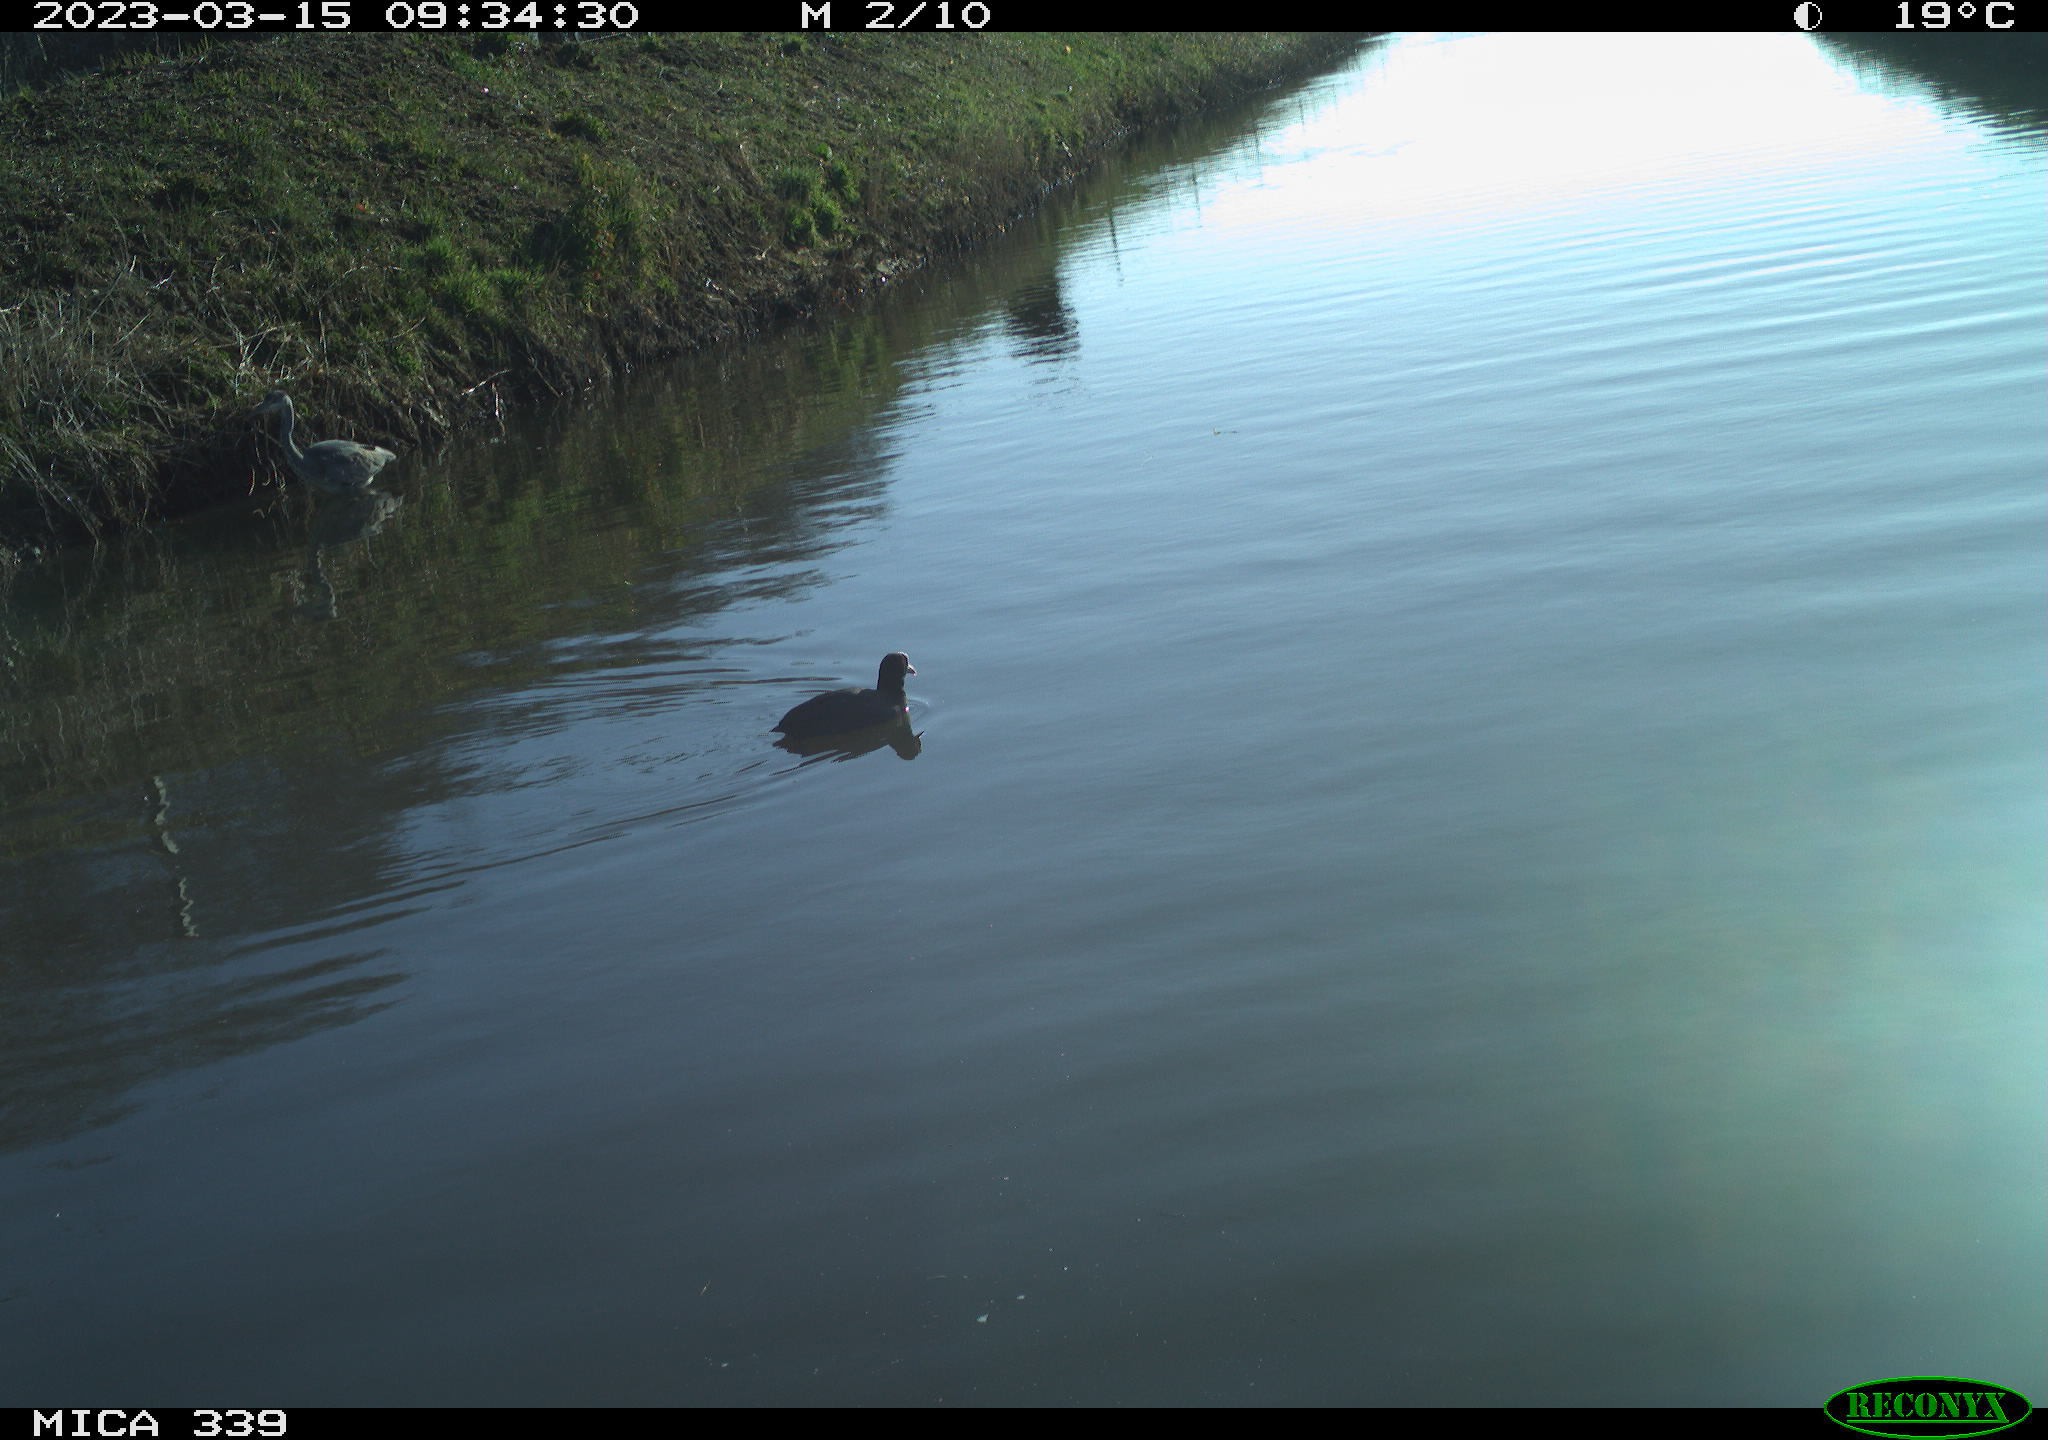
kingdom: Animalia
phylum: Chordata
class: Aves
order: Suliformes
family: Phalacrocoracidae
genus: Phalacrocorax
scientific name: Phalacrocorax carbo
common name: Great cormorant
